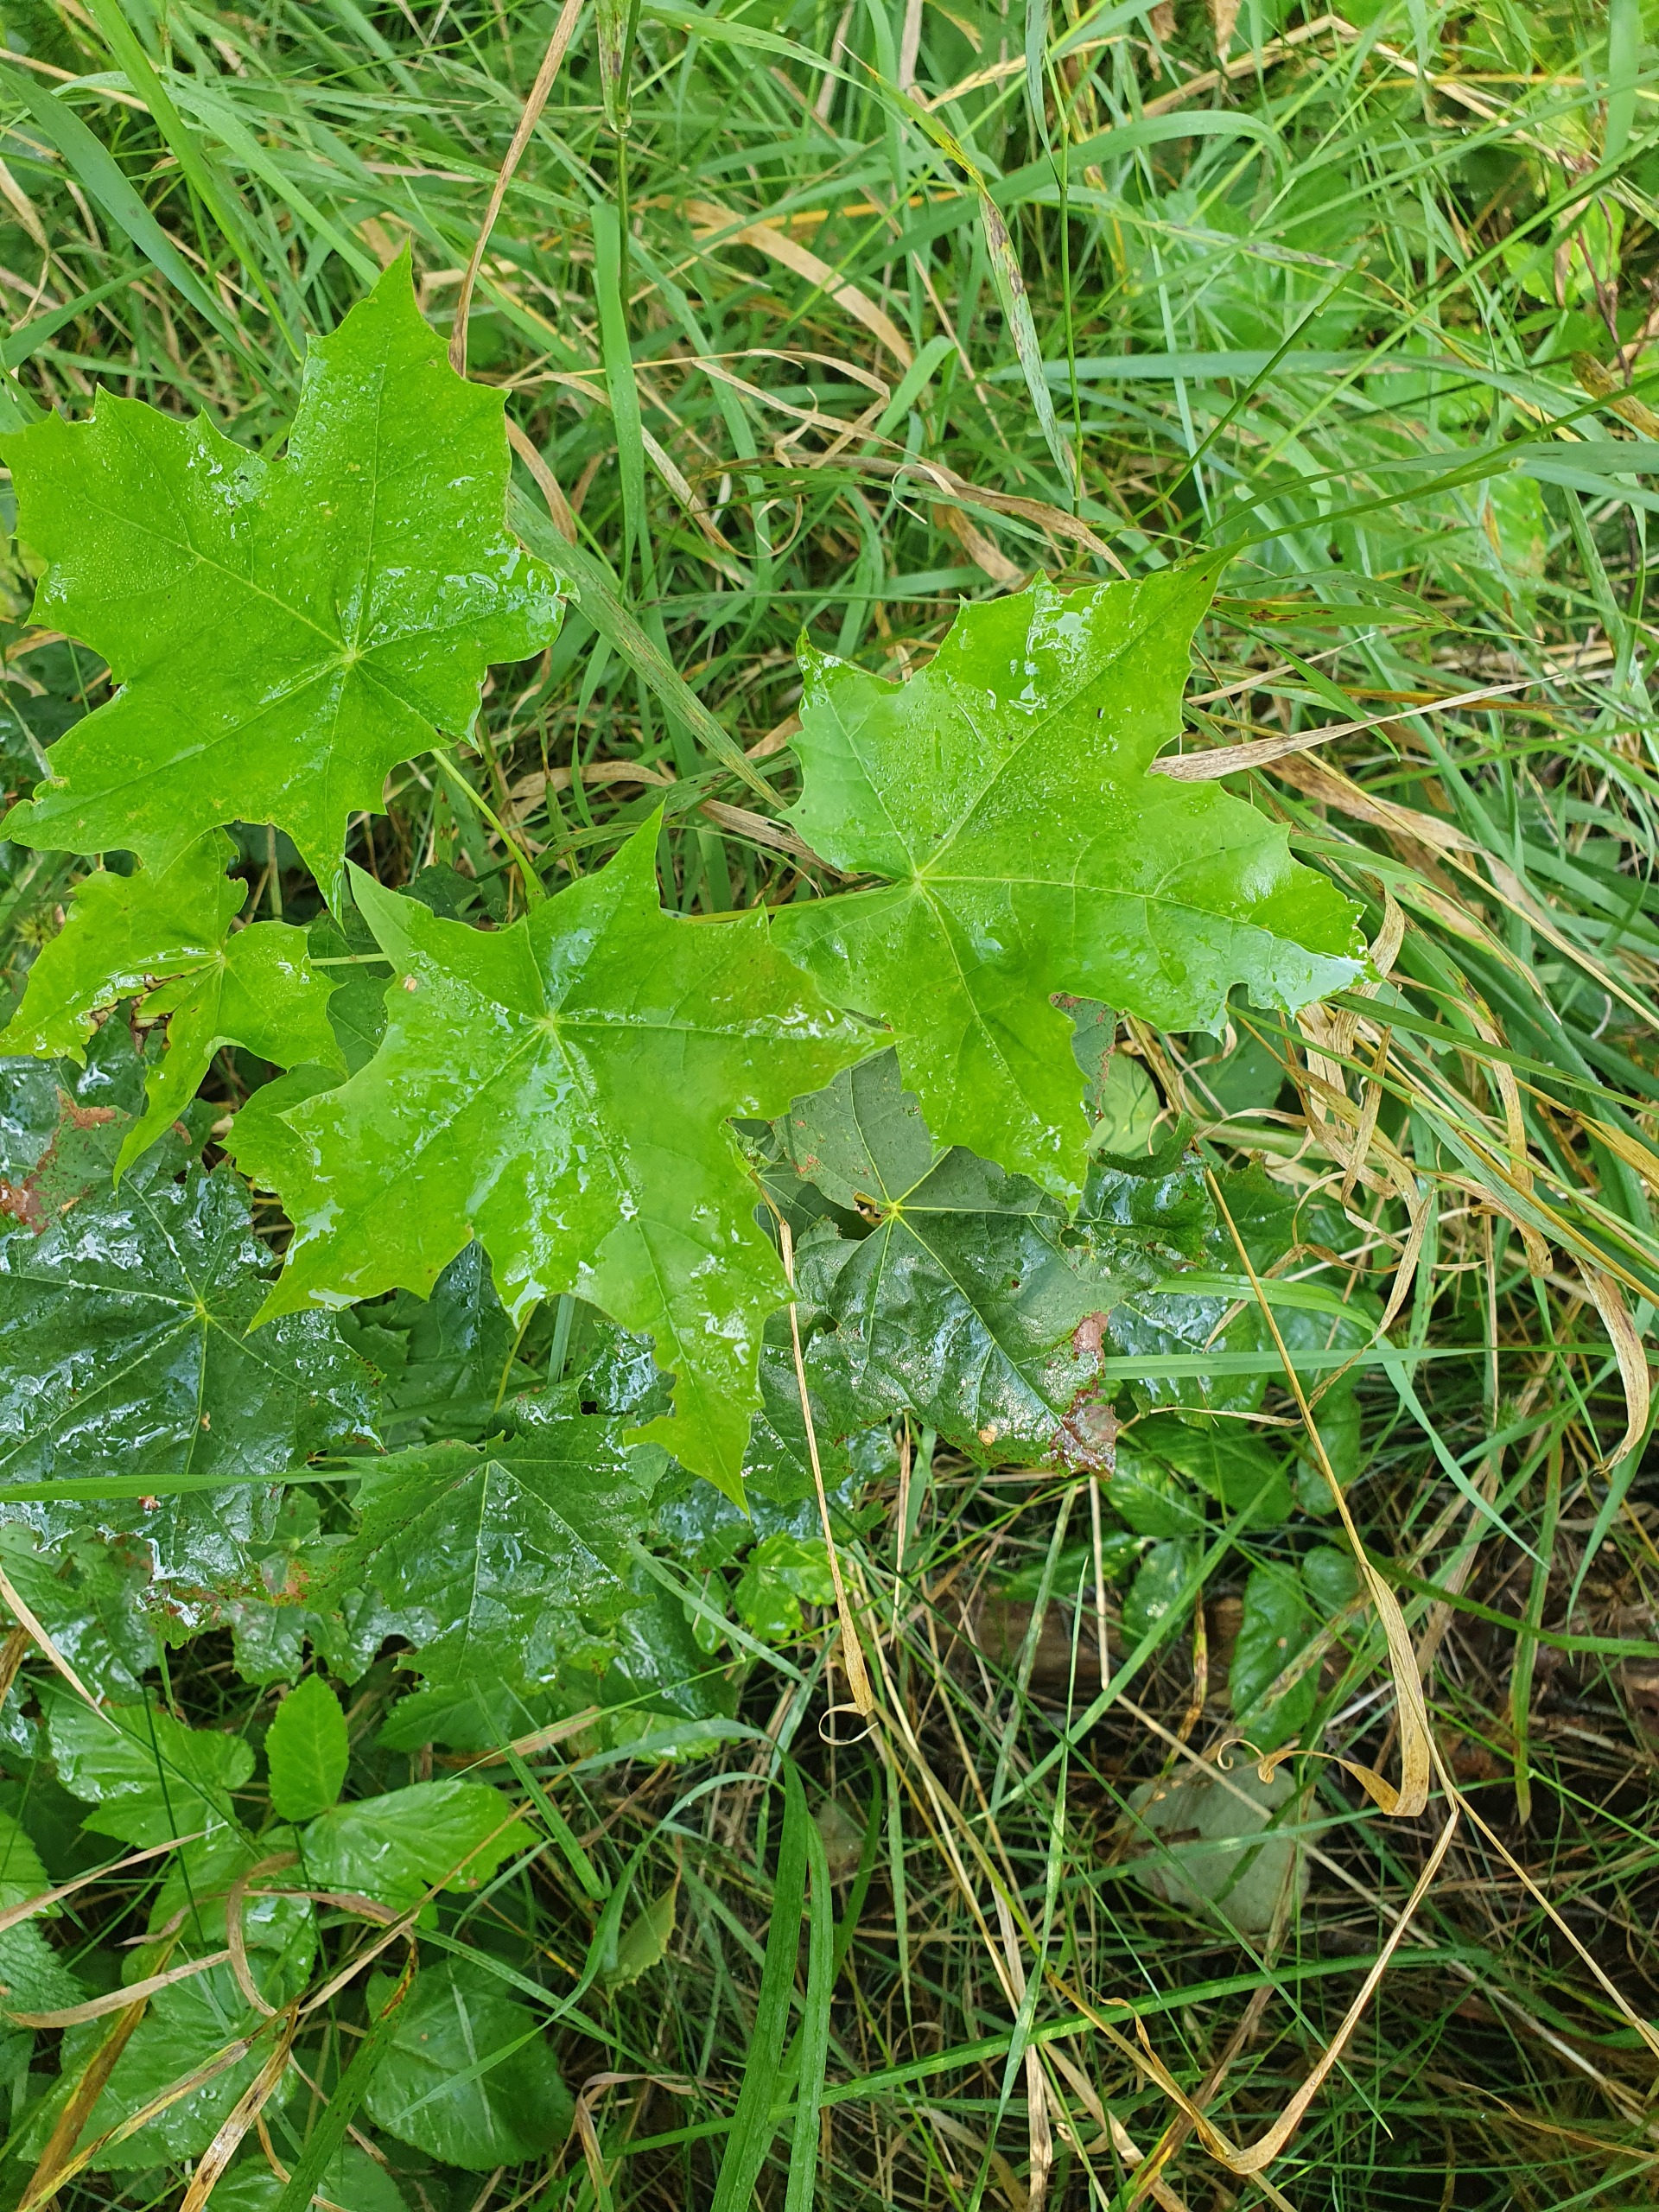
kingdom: Plantae
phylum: Tracheophyta
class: Magnoliopsida
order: Sapindales
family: Sapindaceae
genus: Acer
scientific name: Acer platanoides
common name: Spids-løn
